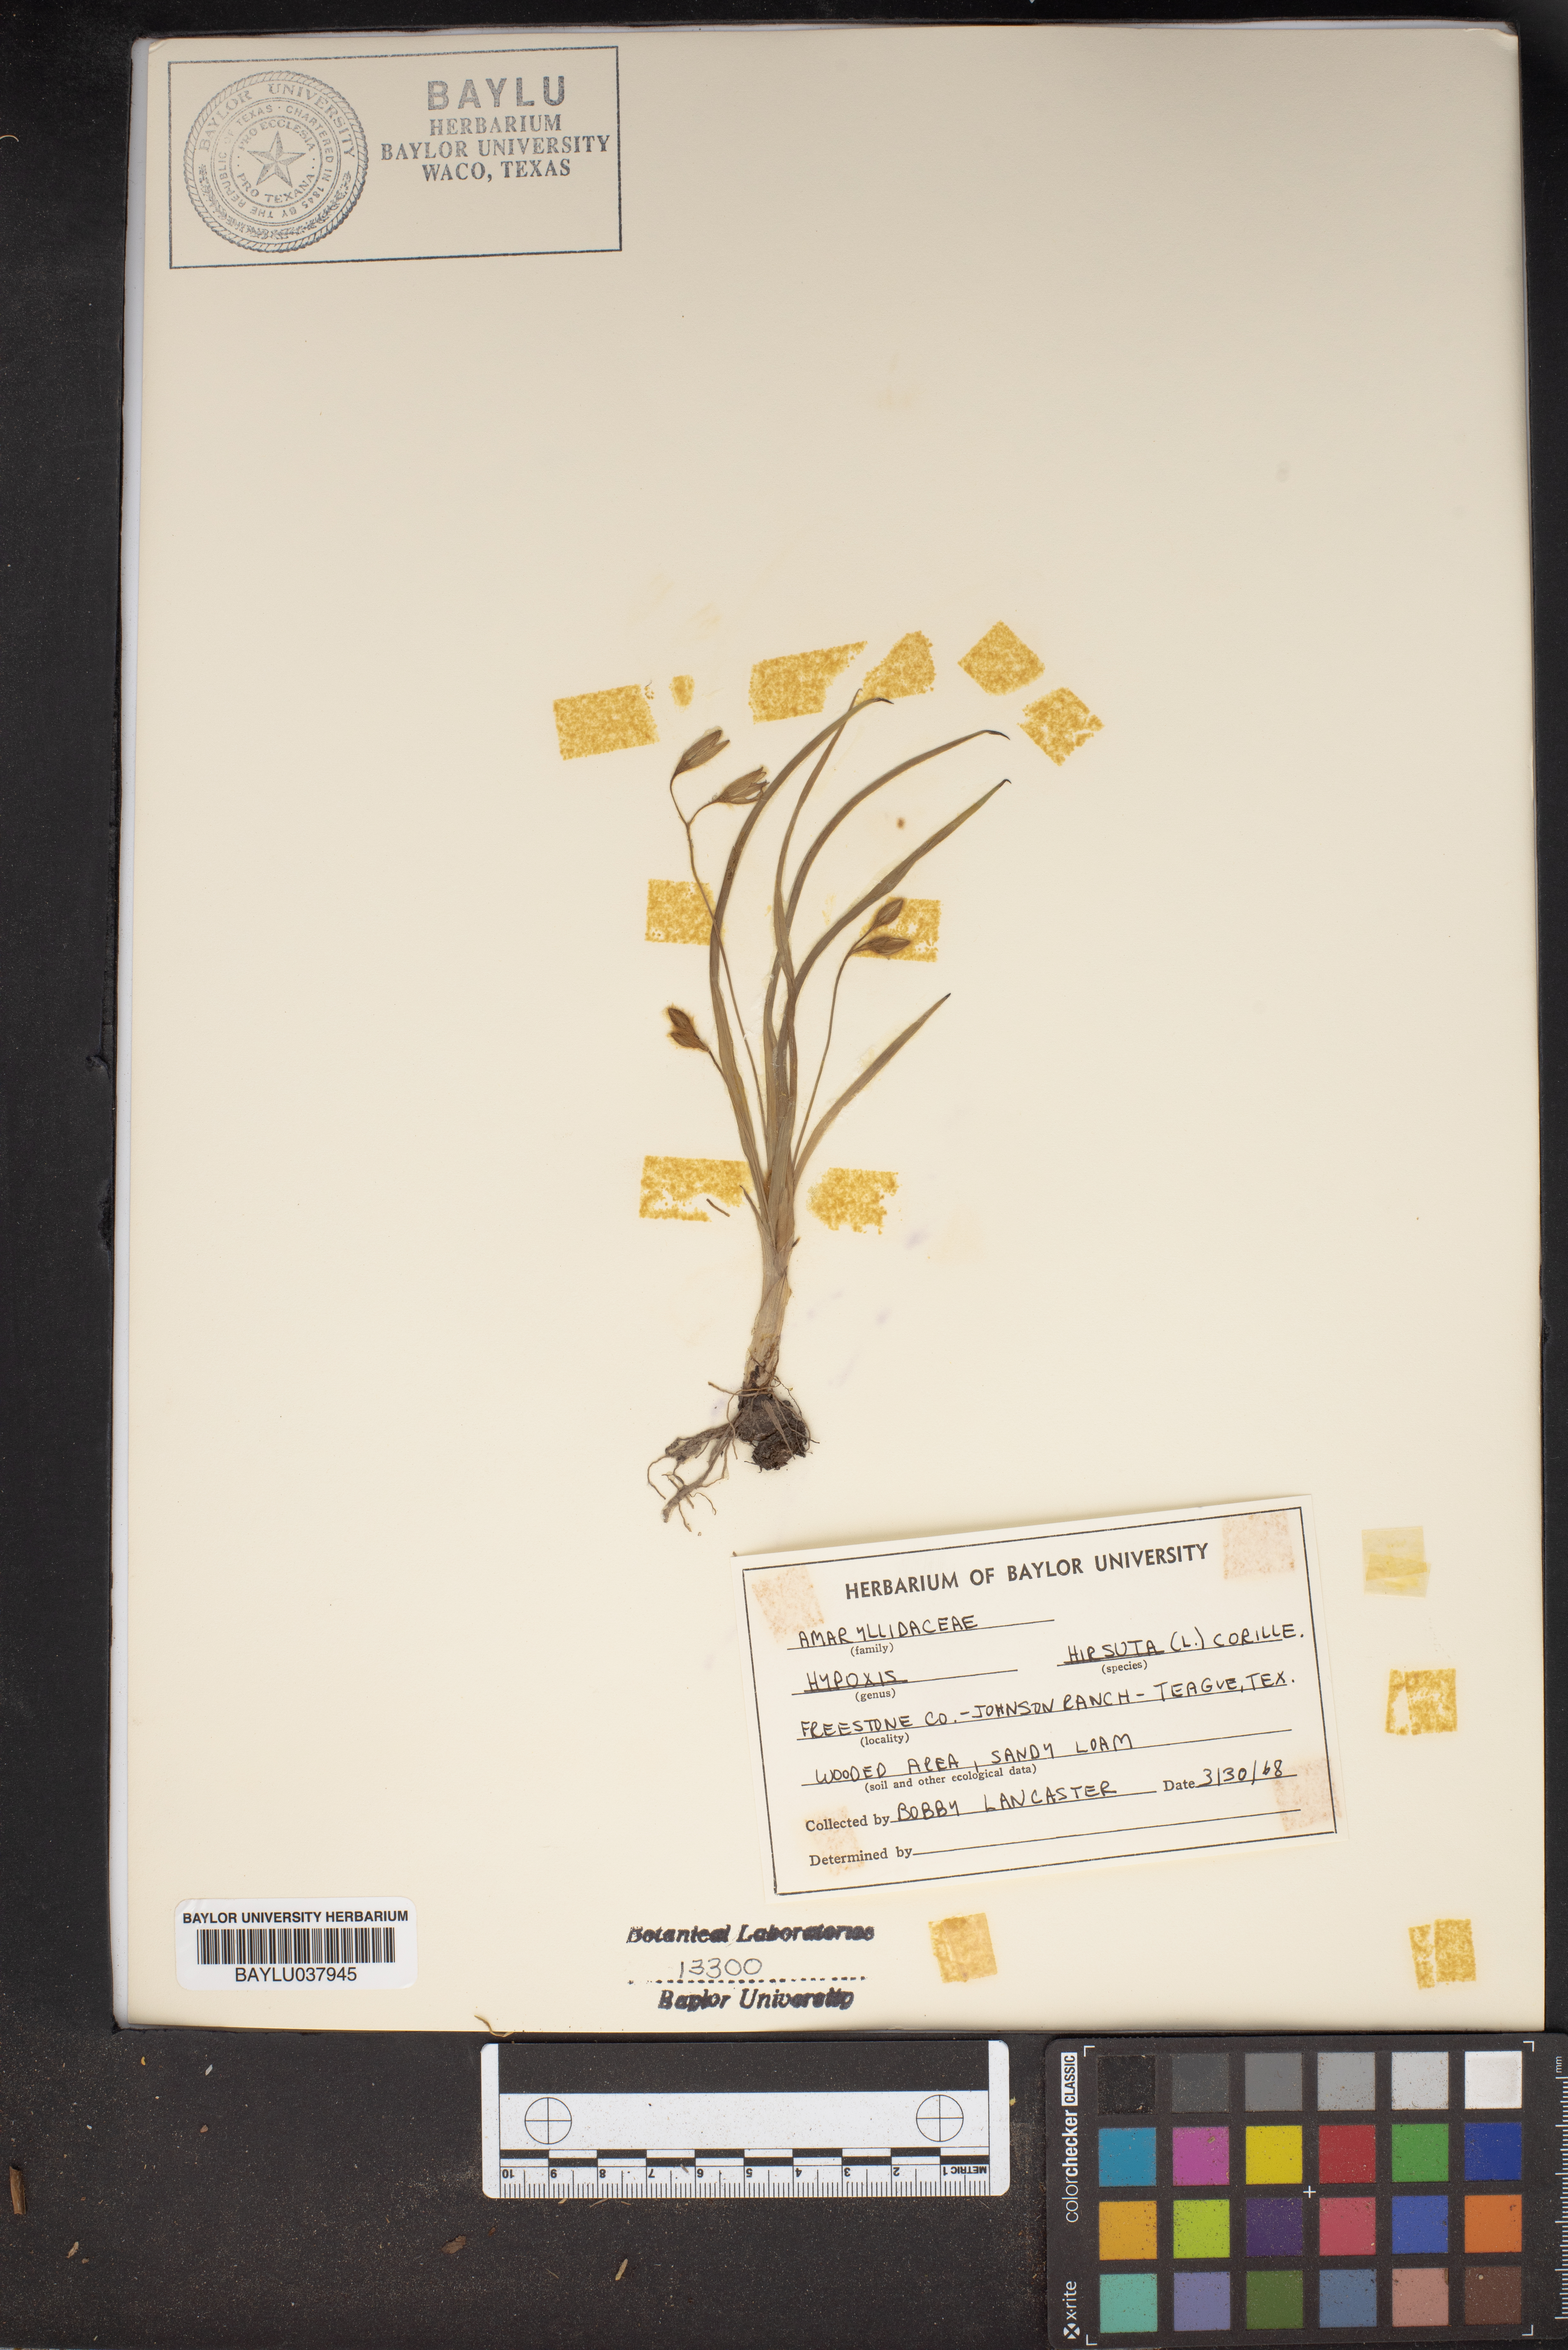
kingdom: Plantae
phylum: Tracheophyta
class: Liliopsida
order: Asparagales
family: Hypoxidaceae
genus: Hypoxis
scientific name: Hypoxis hirsuta
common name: Common goldstar
